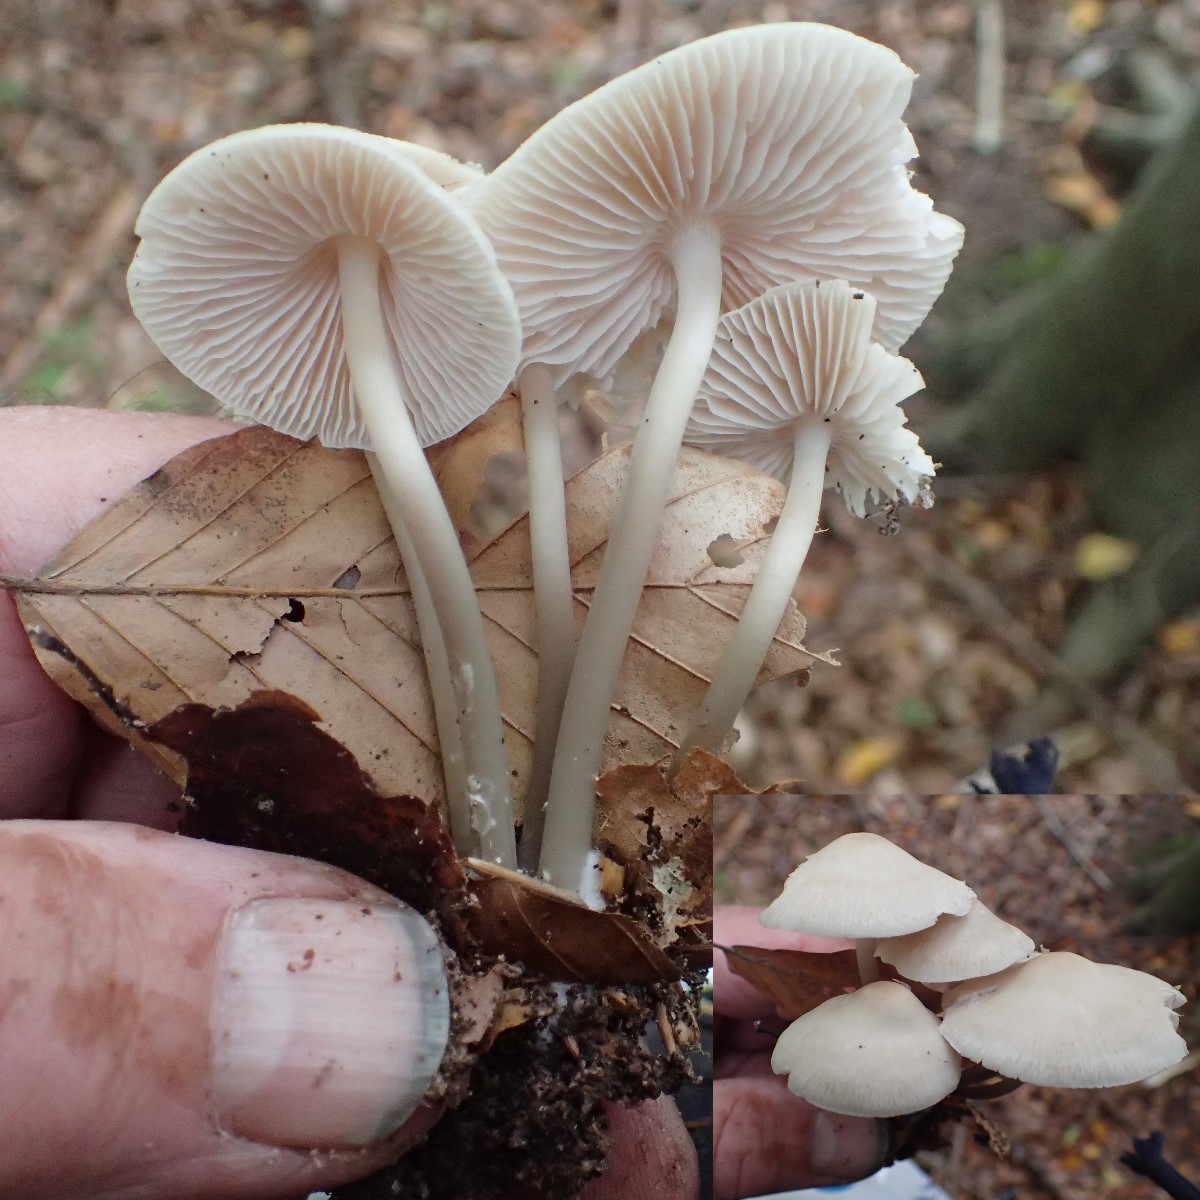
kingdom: Fungi
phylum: Basidiomycota
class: Agaricomycetes
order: Agaricales
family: Mycenaceae
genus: Mycena
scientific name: Mycena galericulata
